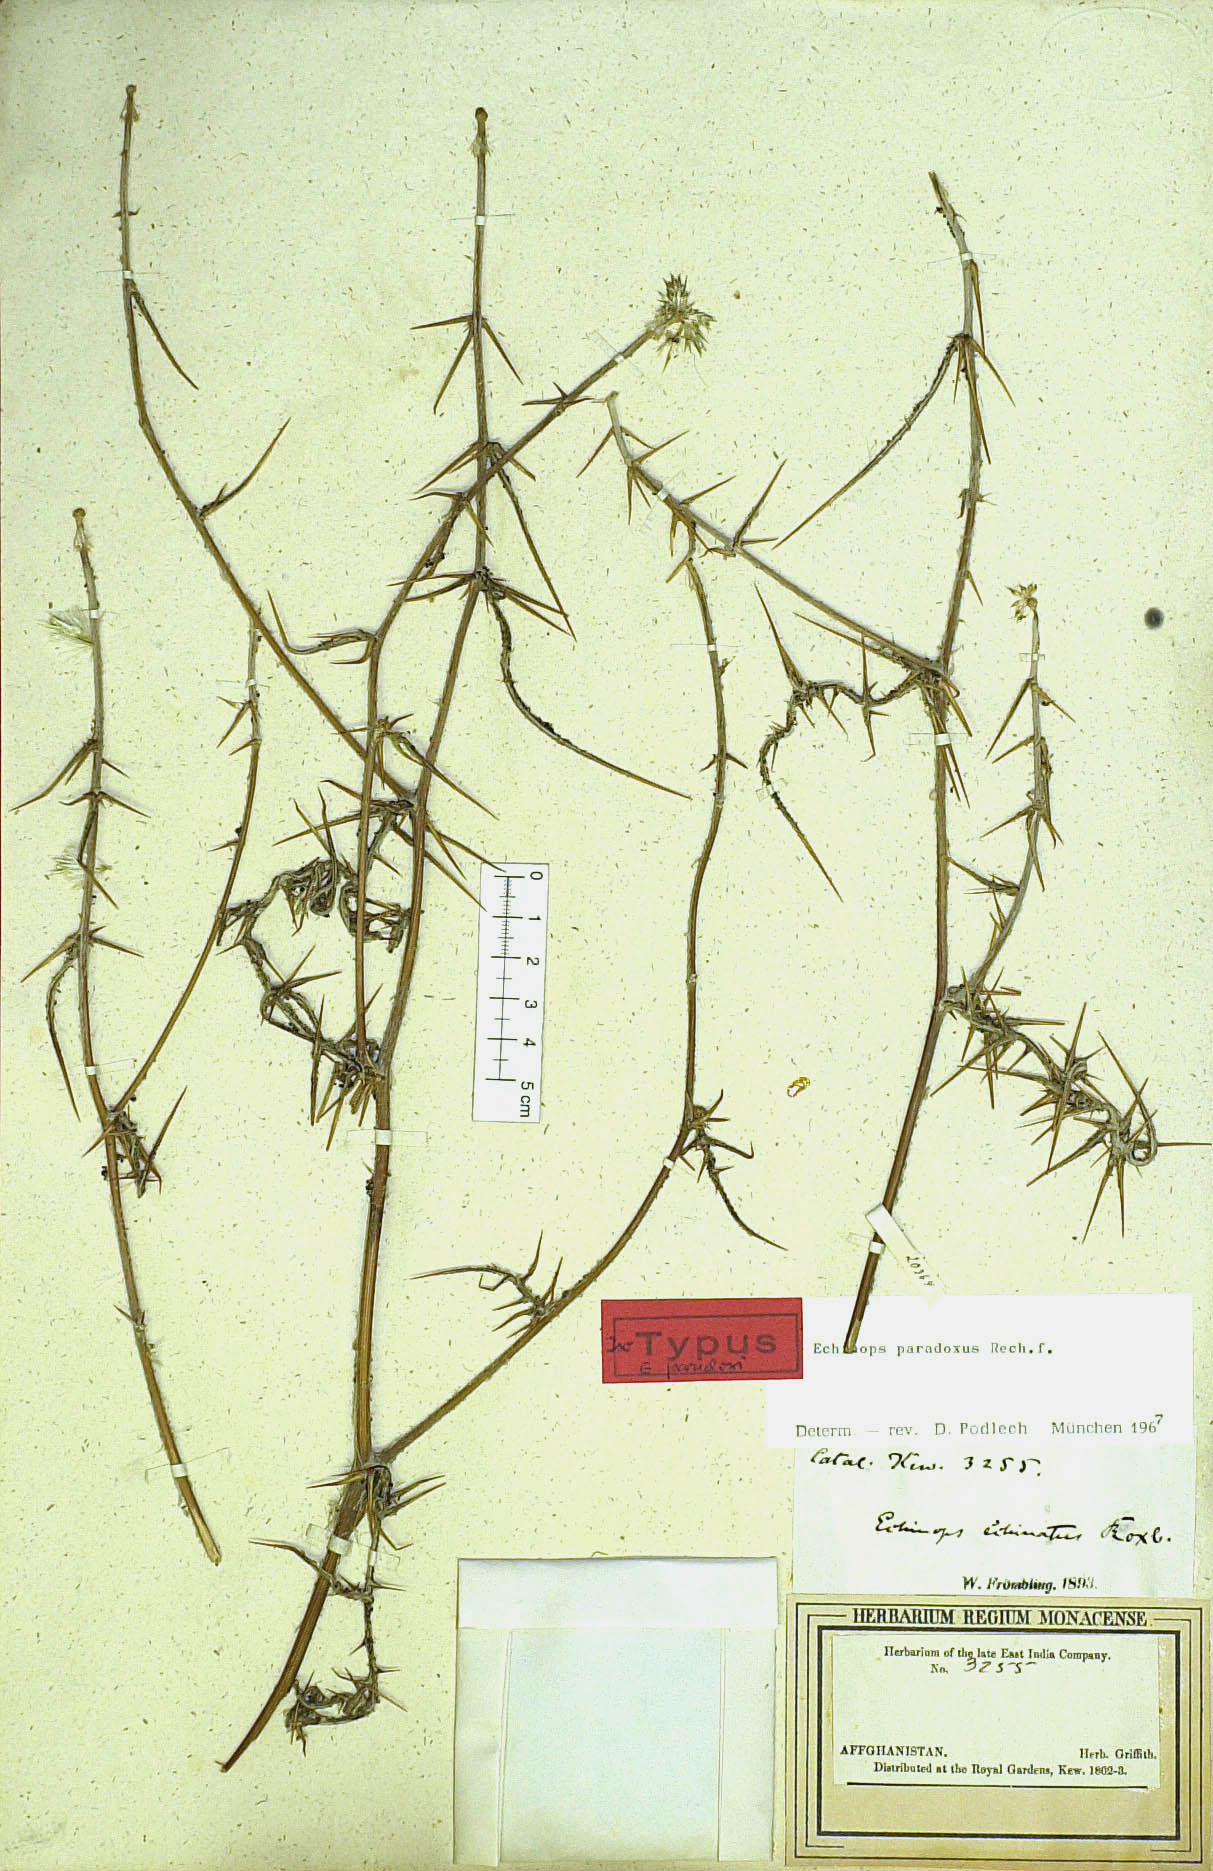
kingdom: Plantae
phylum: Tracheophyta
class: Magnoliopsida
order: Asterales
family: Asteraceae
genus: Echinops
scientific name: Echinops paradoxus
